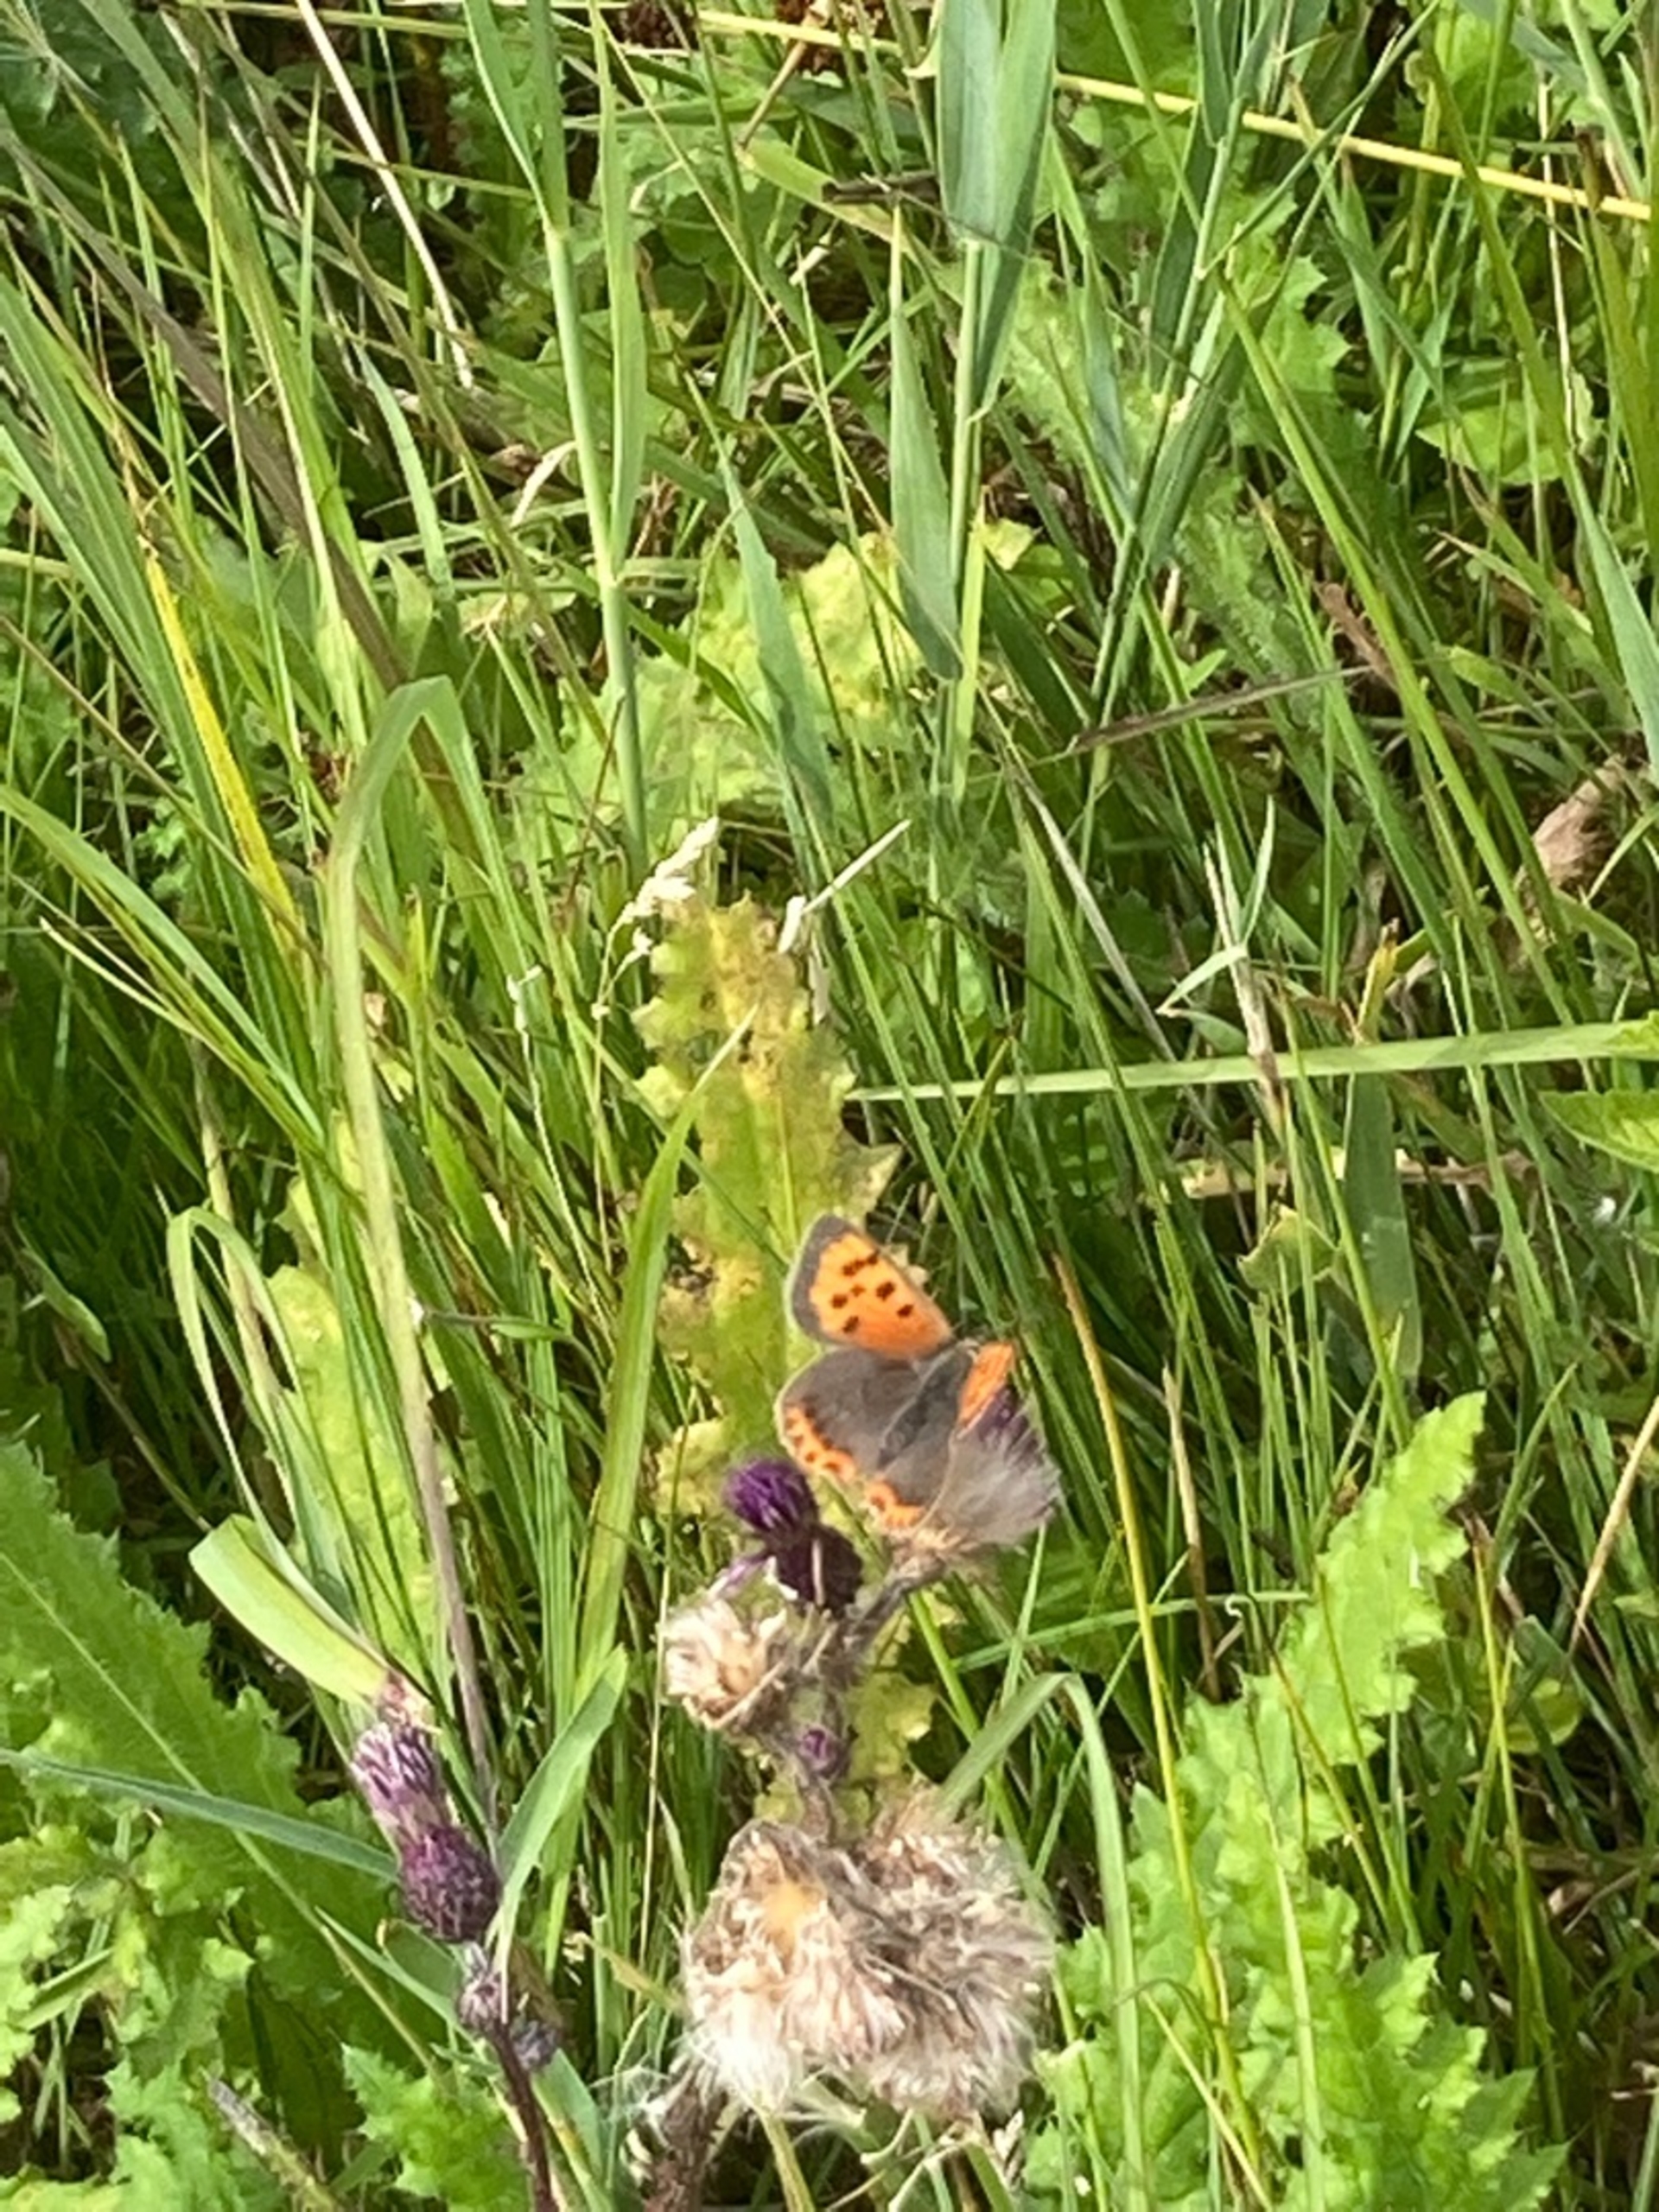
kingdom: Animalia
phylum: Arthropoda
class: Insecta
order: Lepidoptera
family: Lycaenidae
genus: Lycaena
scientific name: Lycaena phlaeas
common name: Lille ildfugl
